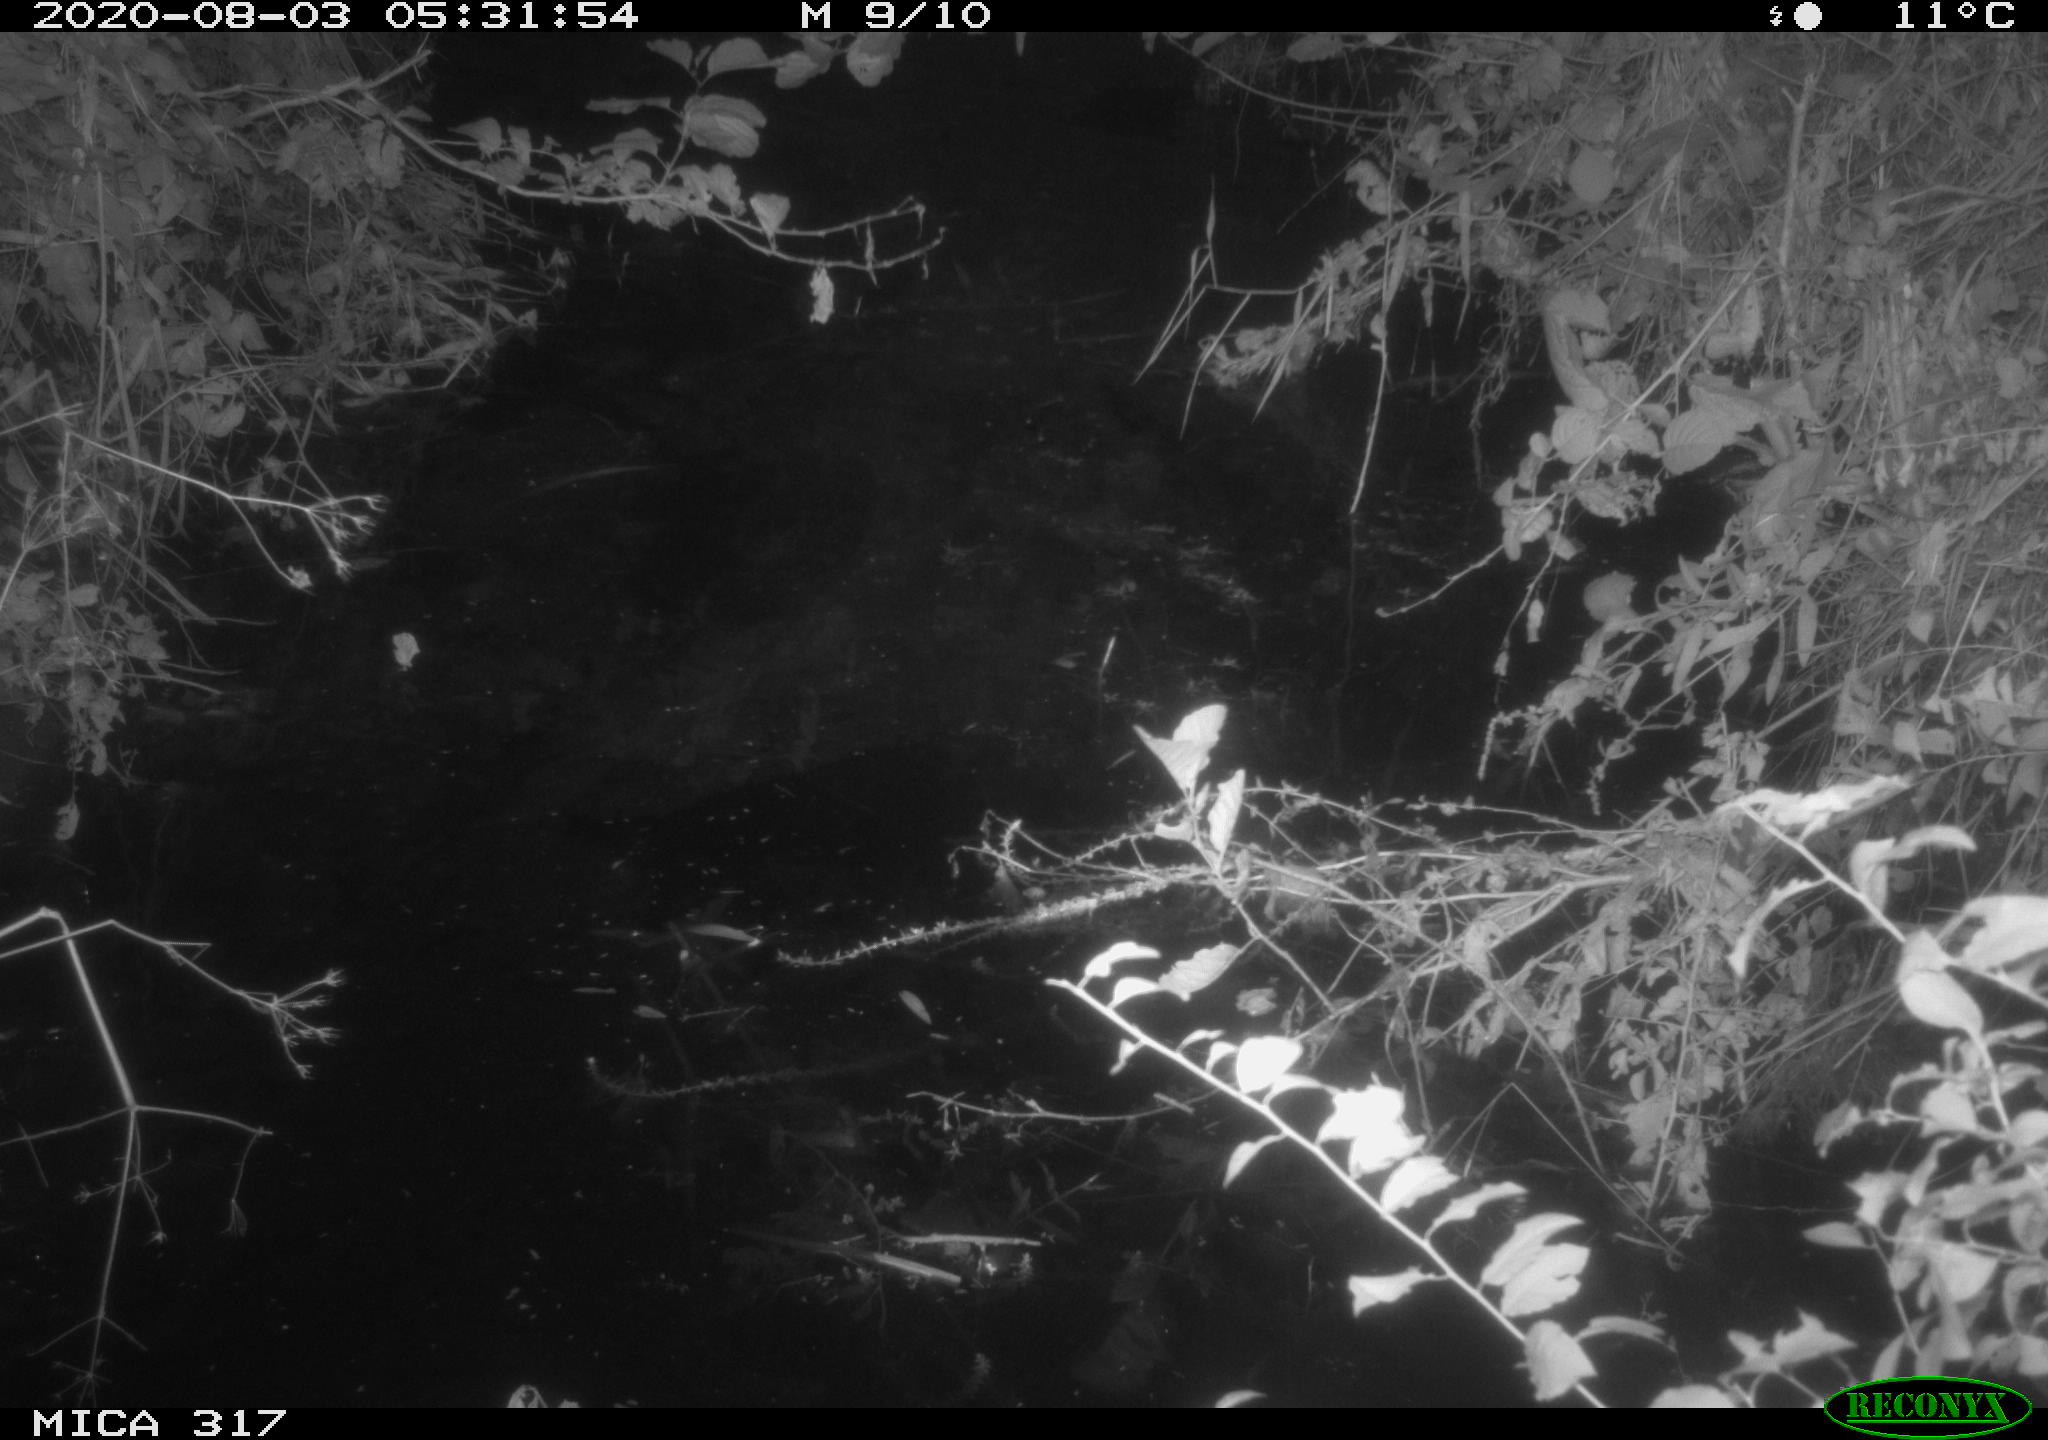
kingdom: Animalia
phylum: Chordata
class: Aves
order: Anseriformes
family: Anatidae
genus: Anas
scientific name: Anas platyrhynchos
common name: Mallard
